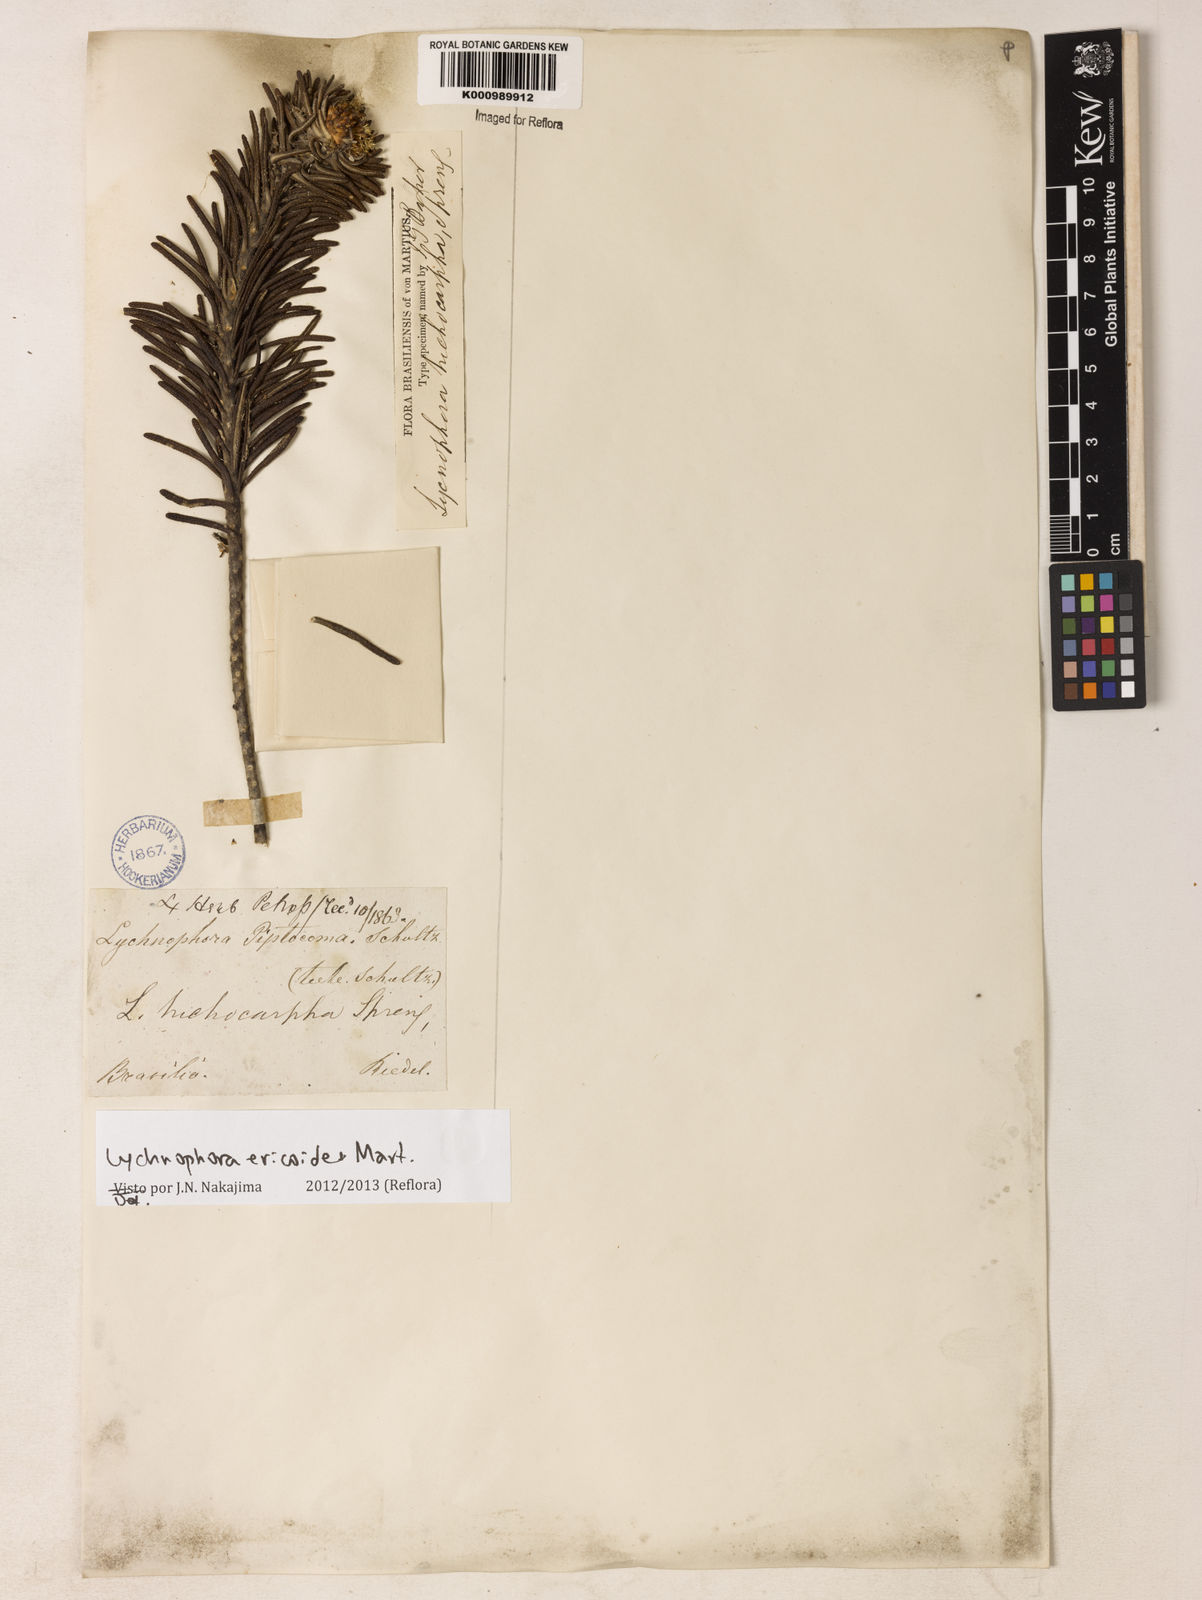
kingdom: Plantae
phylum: Tracheophyta
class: Magnoliopsida
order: Asterales
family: Asteraceae
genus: Lychnophora
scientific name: Lychnophora ericoides
